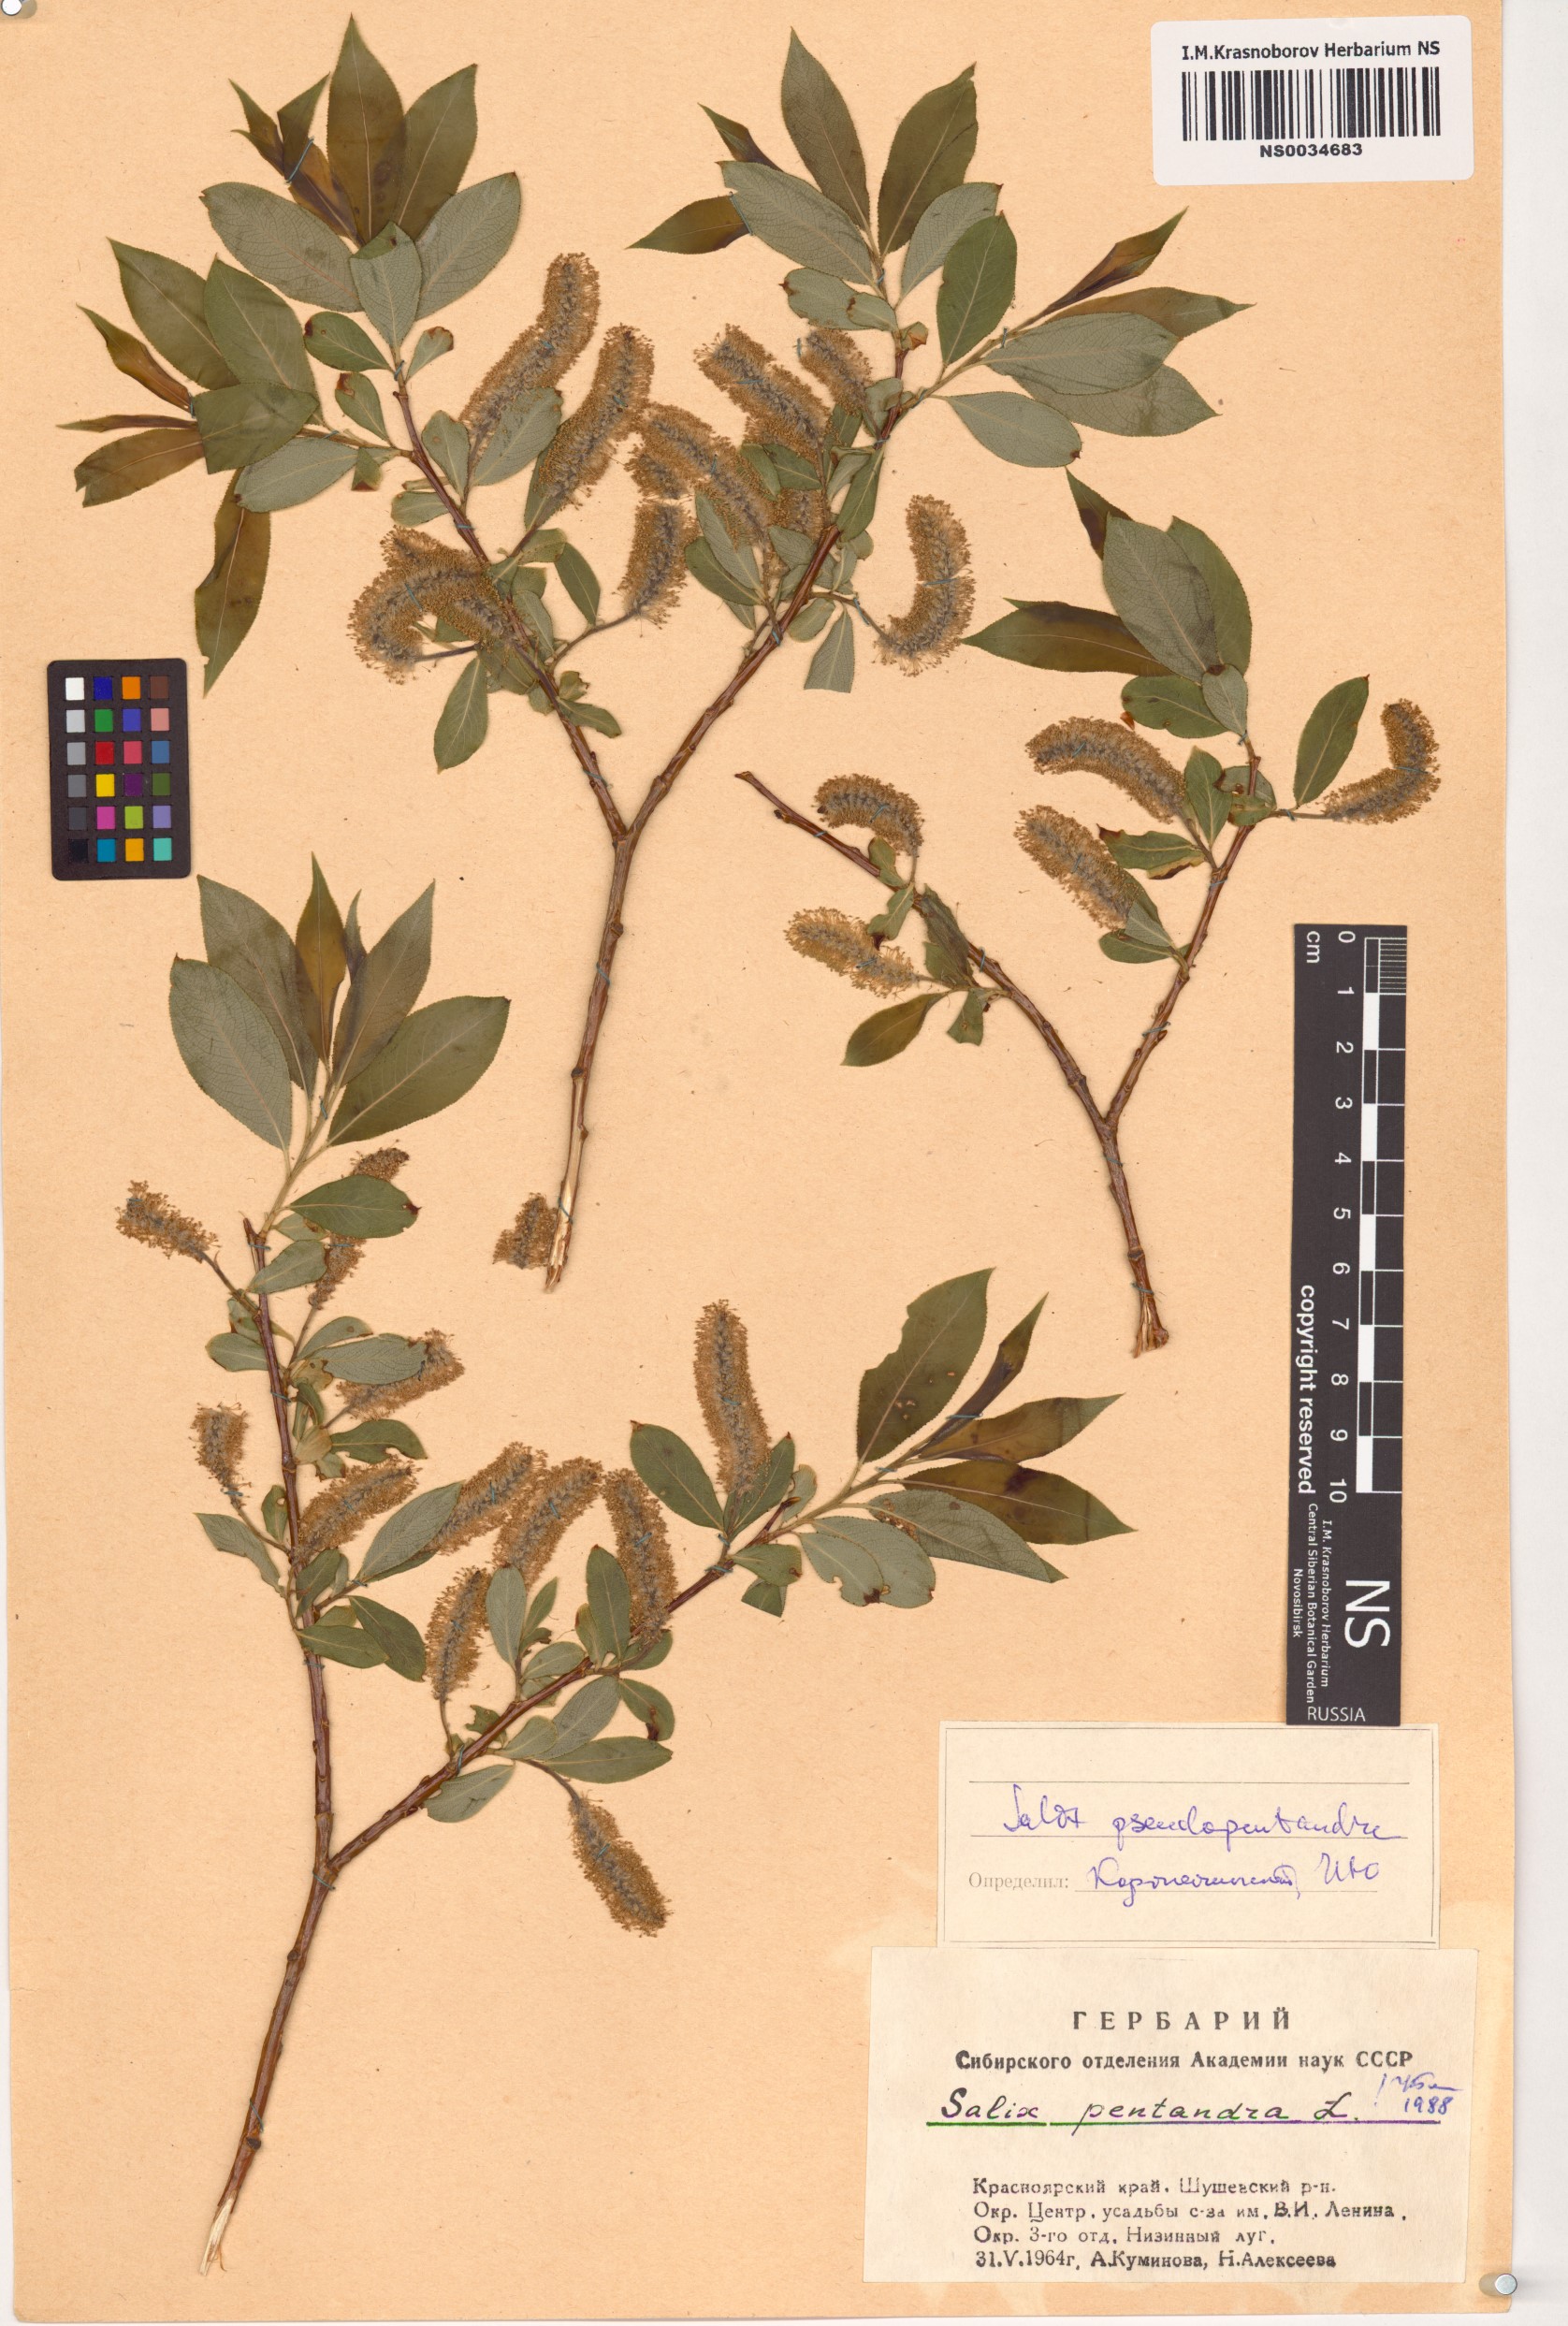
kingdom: Plantae
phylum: Tracheophyta
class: Magnoliopsida
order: Malpighiales
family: Salicaceae
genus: Salix
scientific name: Salix pentandra
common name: Bay willow
